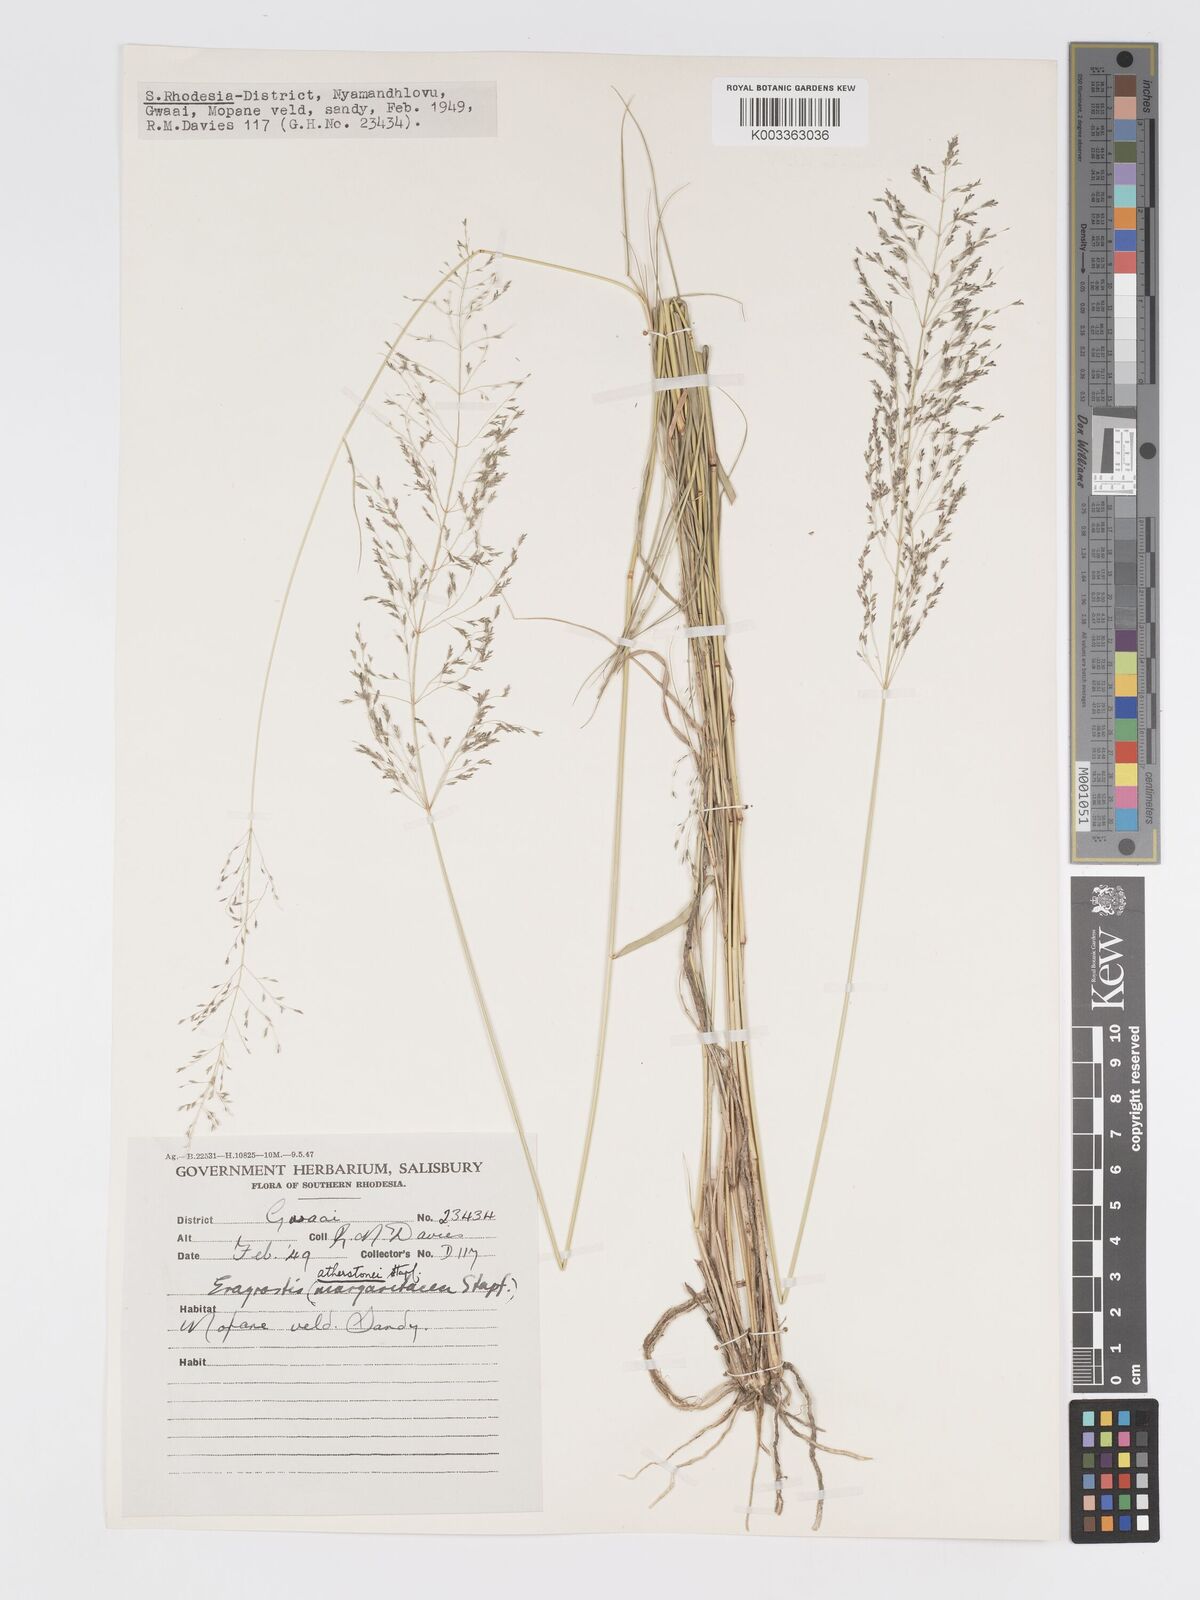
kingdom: Plantae
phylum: Tracheophyta
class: Liliopsida
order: Poales
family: Poaceae
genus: Eragrostis
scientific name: Eragrostis cylindriflora
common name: Cylinderflower lovegrass
